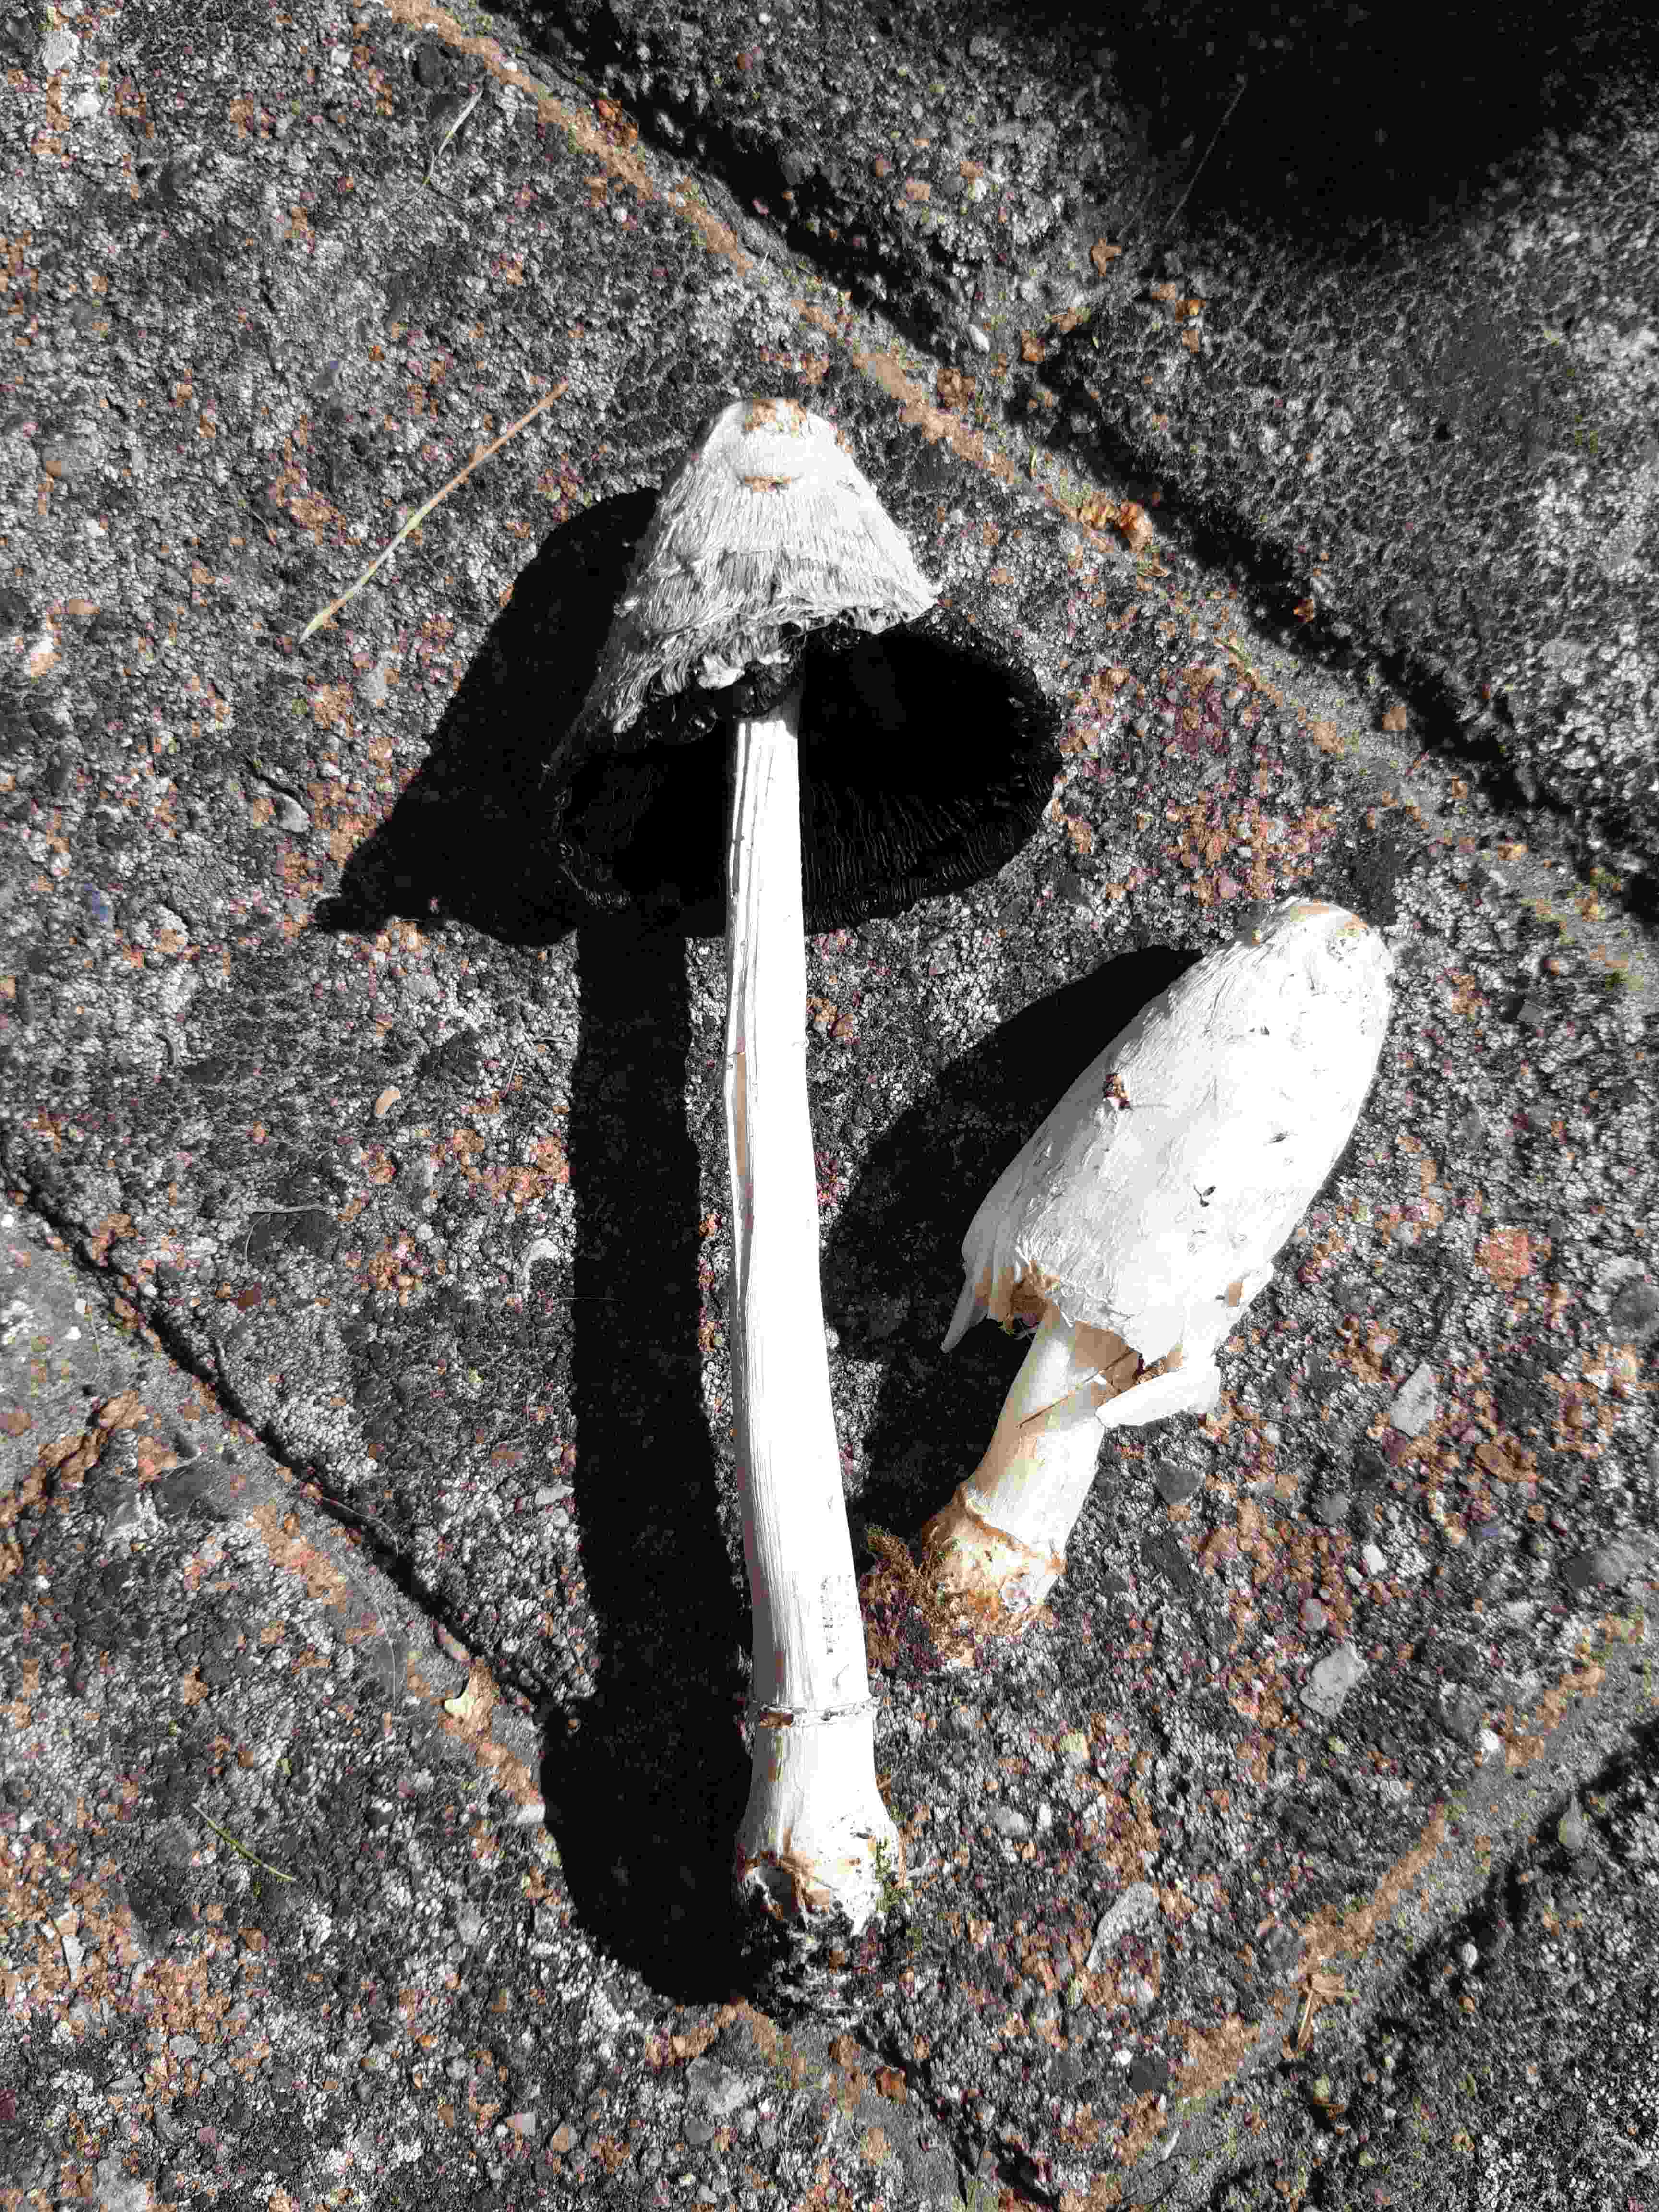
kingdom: Fungi
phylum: Basidiomycota
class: Agaricomycetes
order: Agaricales
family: Agaricaceae
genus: Coprinus
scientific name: Coprinus comatus
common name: stor parykhat
